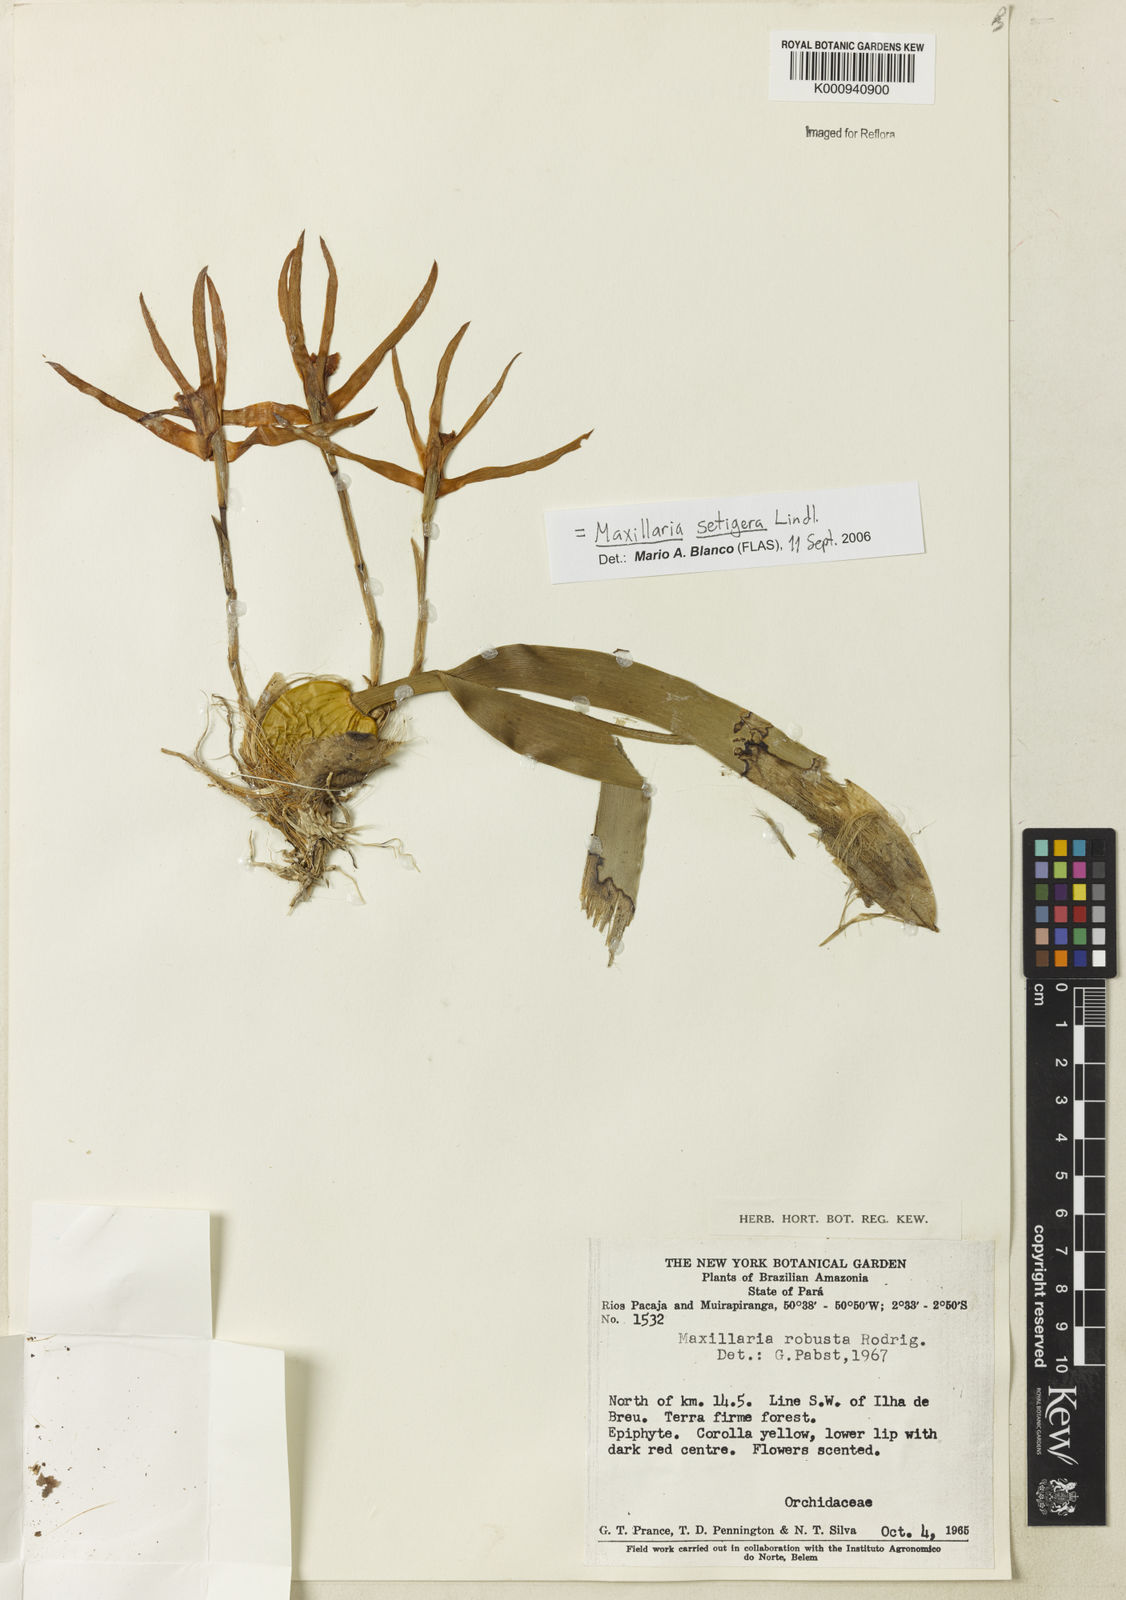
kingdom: Plantae
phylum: Tracheophyta
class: Liliopsida
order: Asparagales
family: Orchidaceae
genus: Maxillaria
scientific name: Maxillaria
